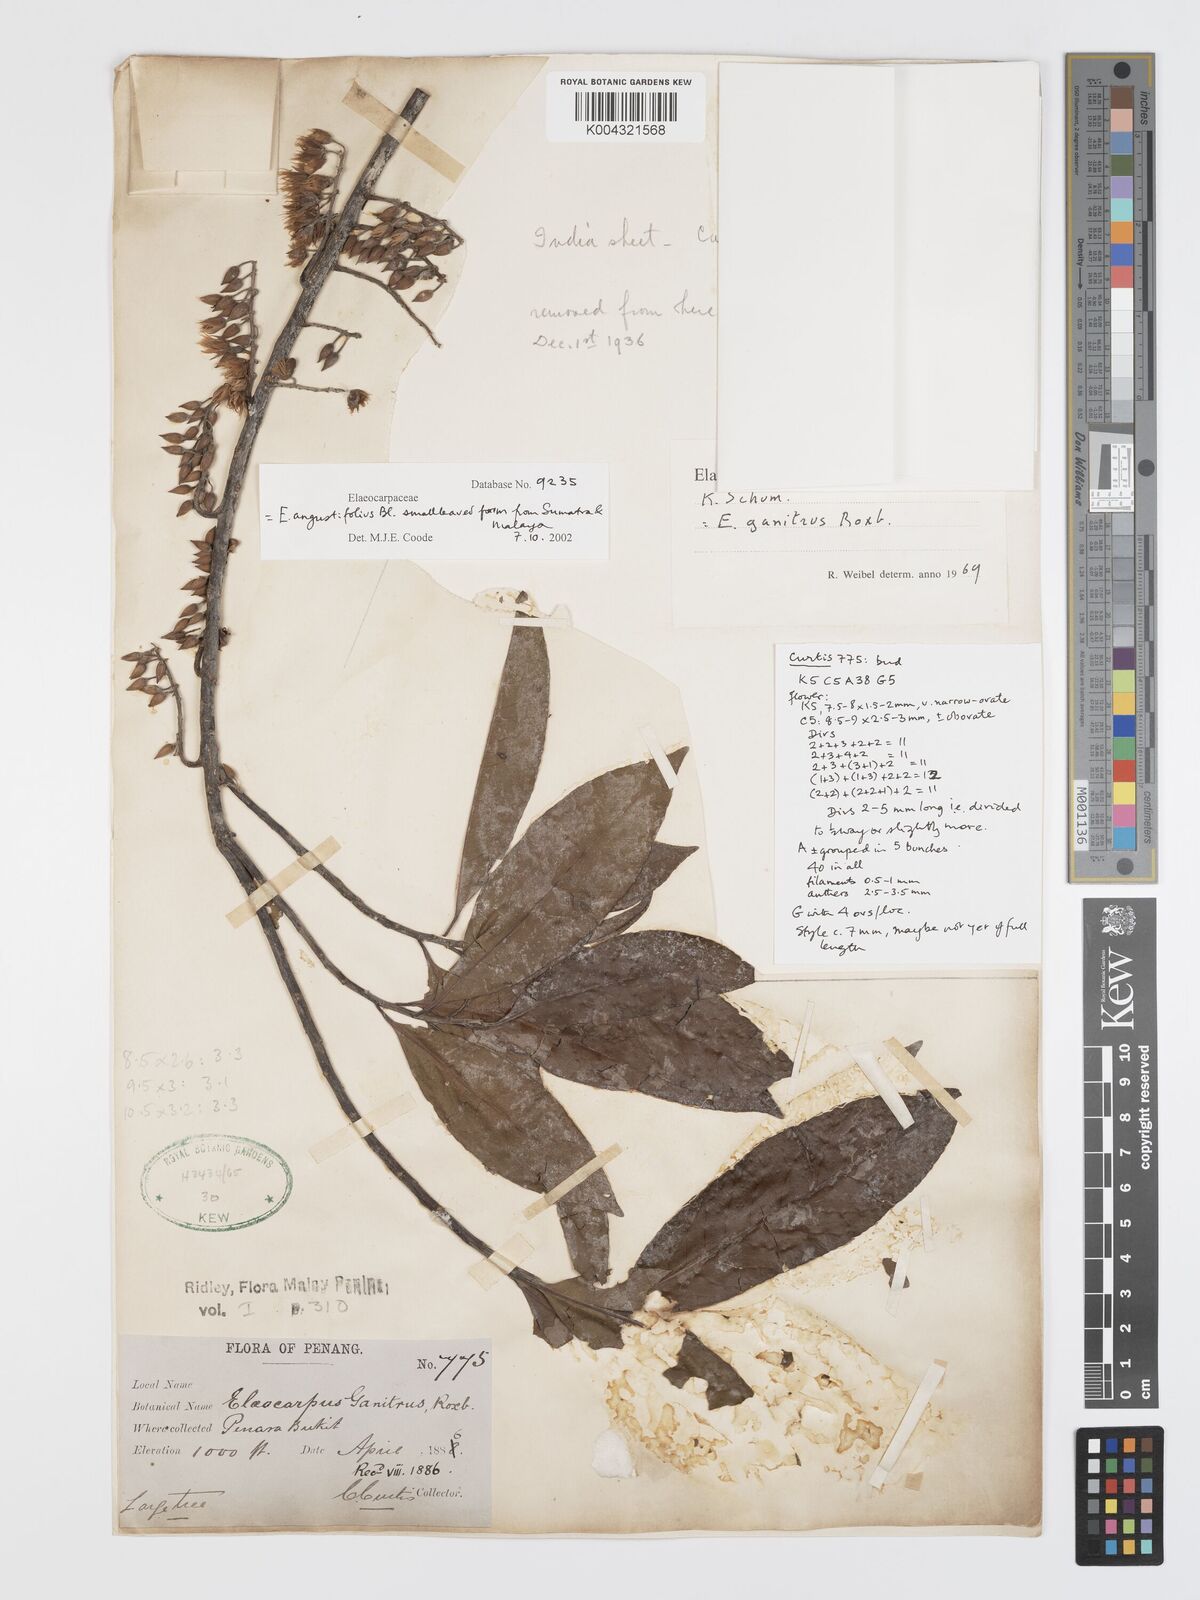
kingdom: Plantae
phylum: Tracheophyta
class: Magnoliopsida
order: Oxalidales
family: Elaeocarpaceae
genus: Elaeocarpus
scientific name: Elaeocarpus sphaericus
